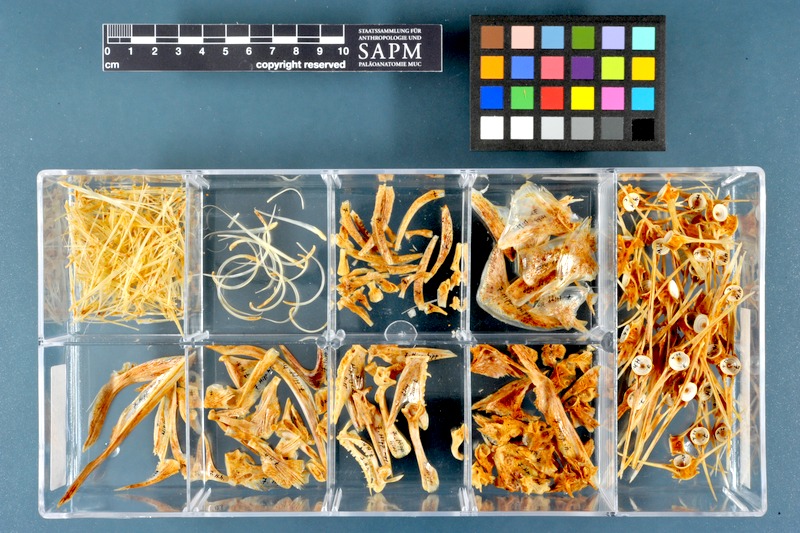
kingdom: Animalia
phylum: Chordata
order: Pleuronectiformes
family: Pleuronectidae
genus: Hippoglossus
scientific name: Hippoglossus hippoglossus
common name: Atlantic halibut
